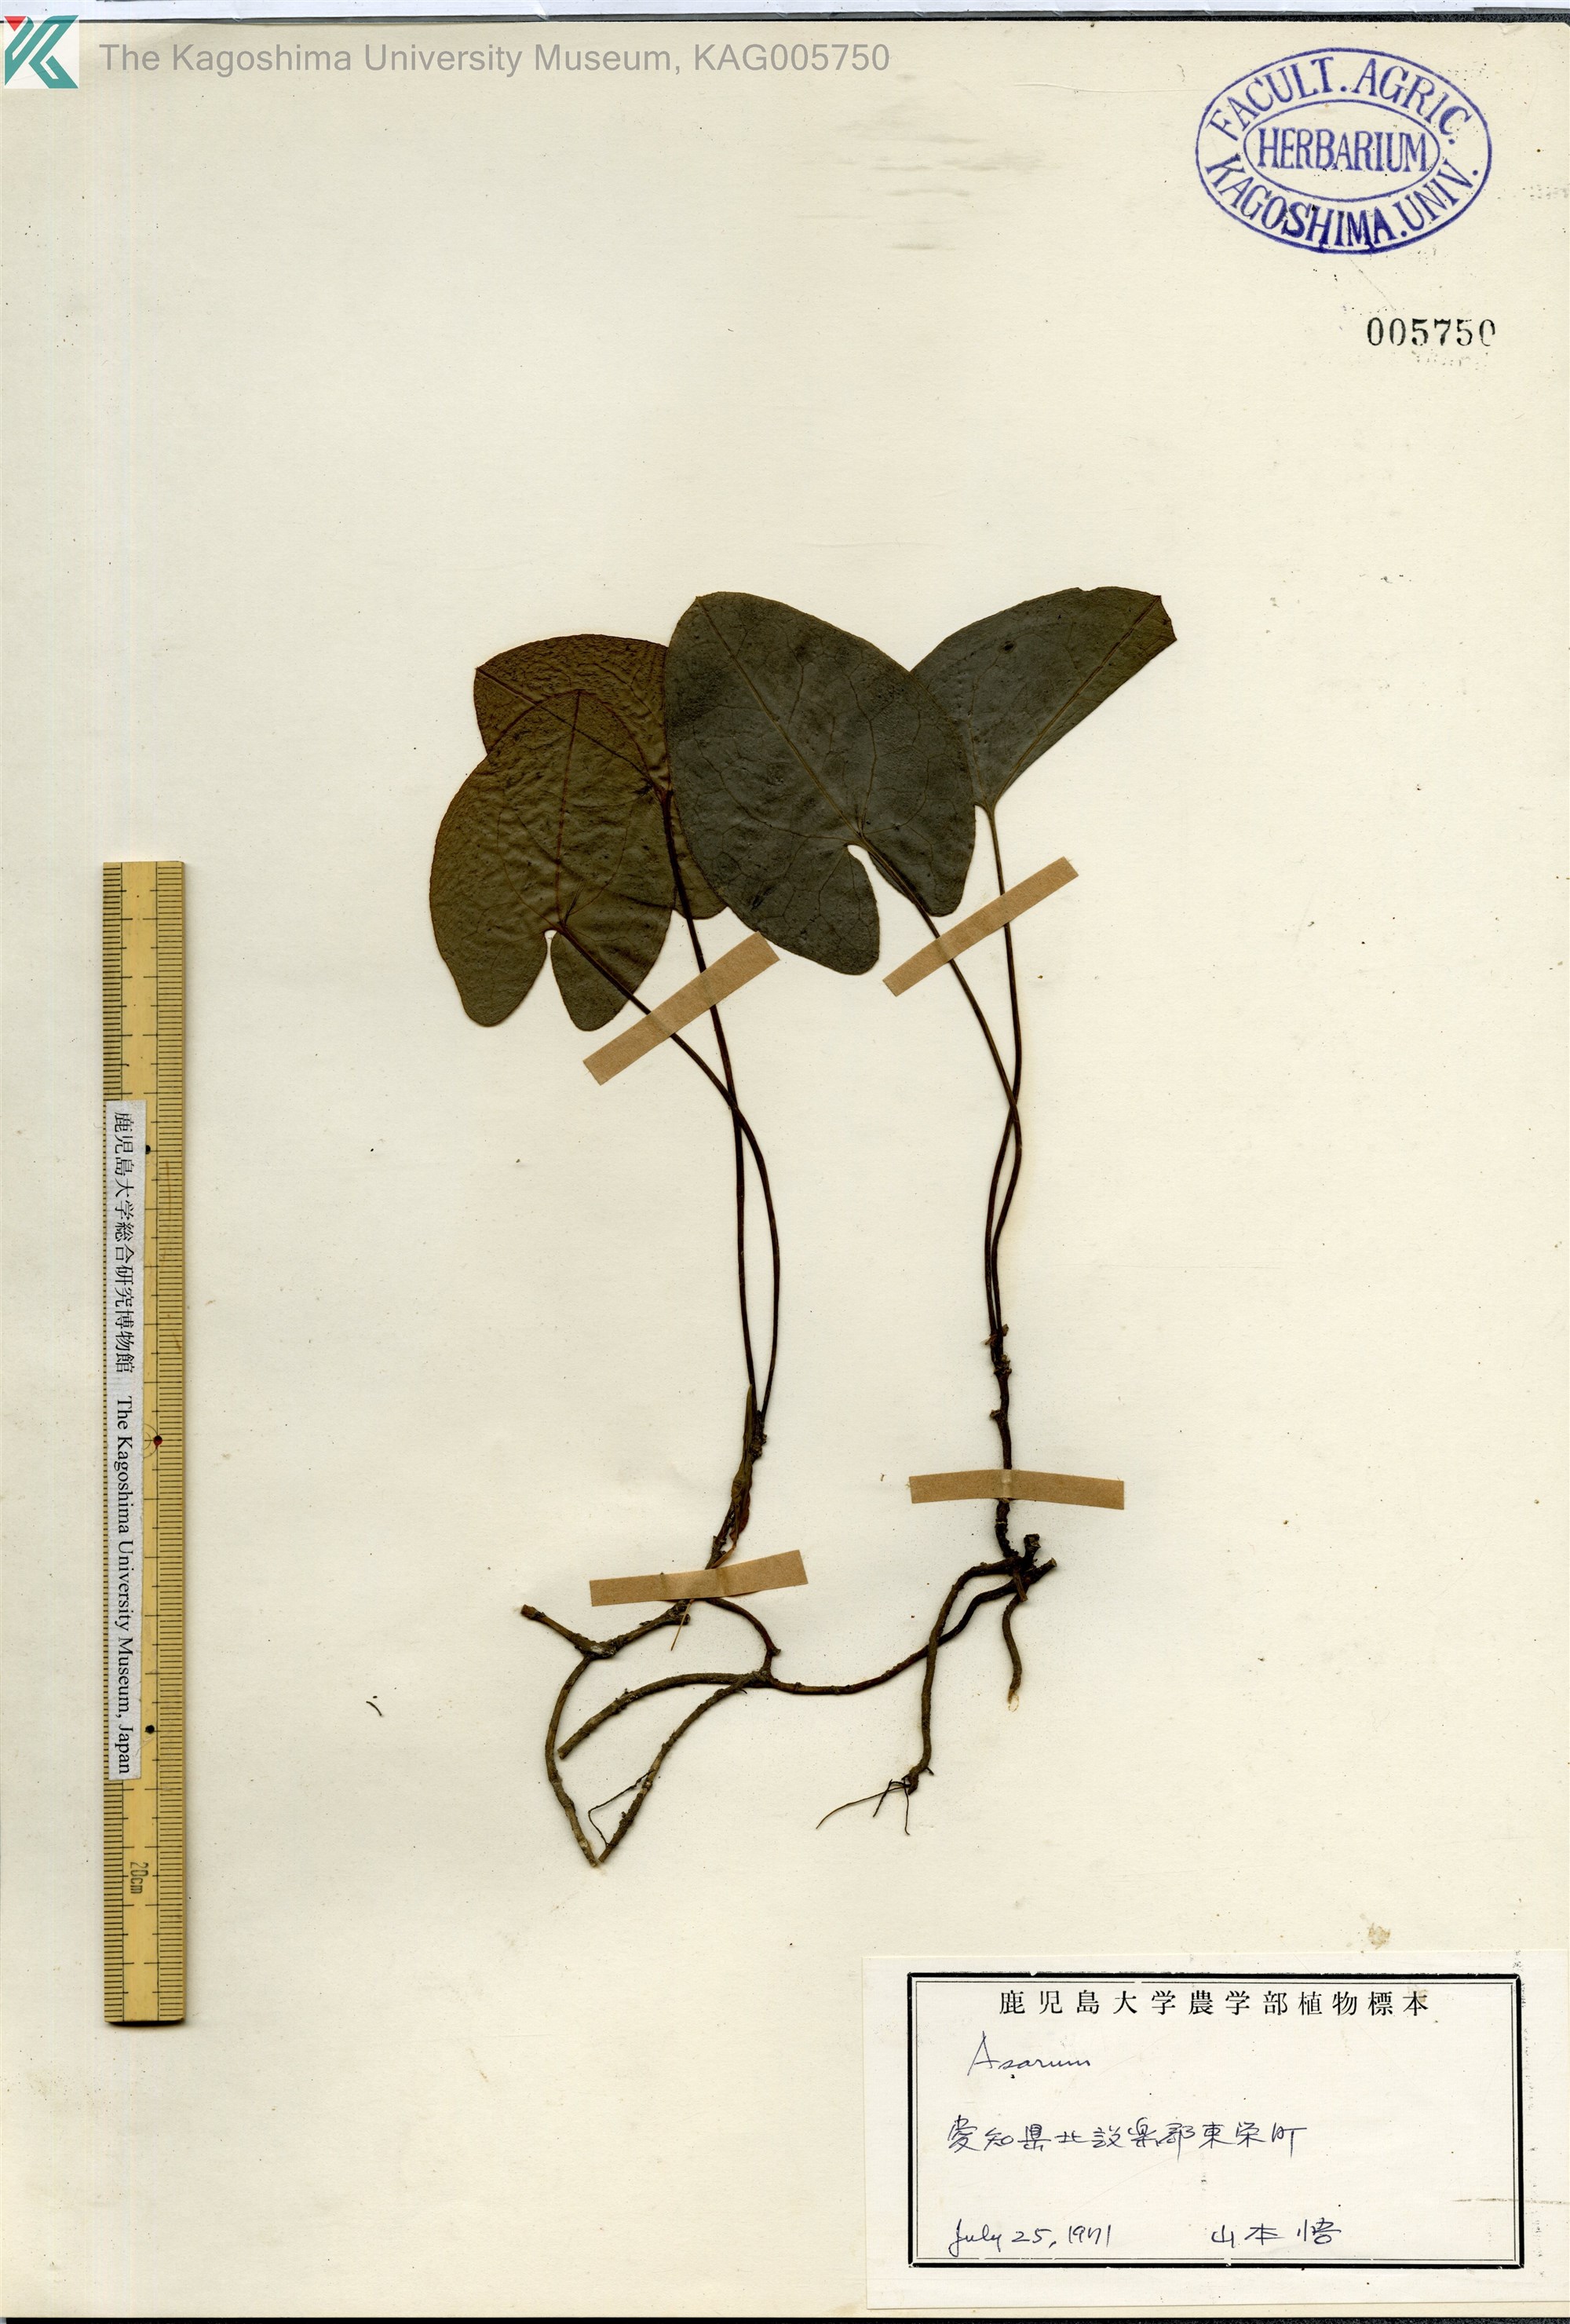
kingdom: Plantae
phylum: Tracheophyta
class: Magnoliopsida
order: Piperales
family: Aristolochiaceae
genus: Asarum
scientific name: Asarum
